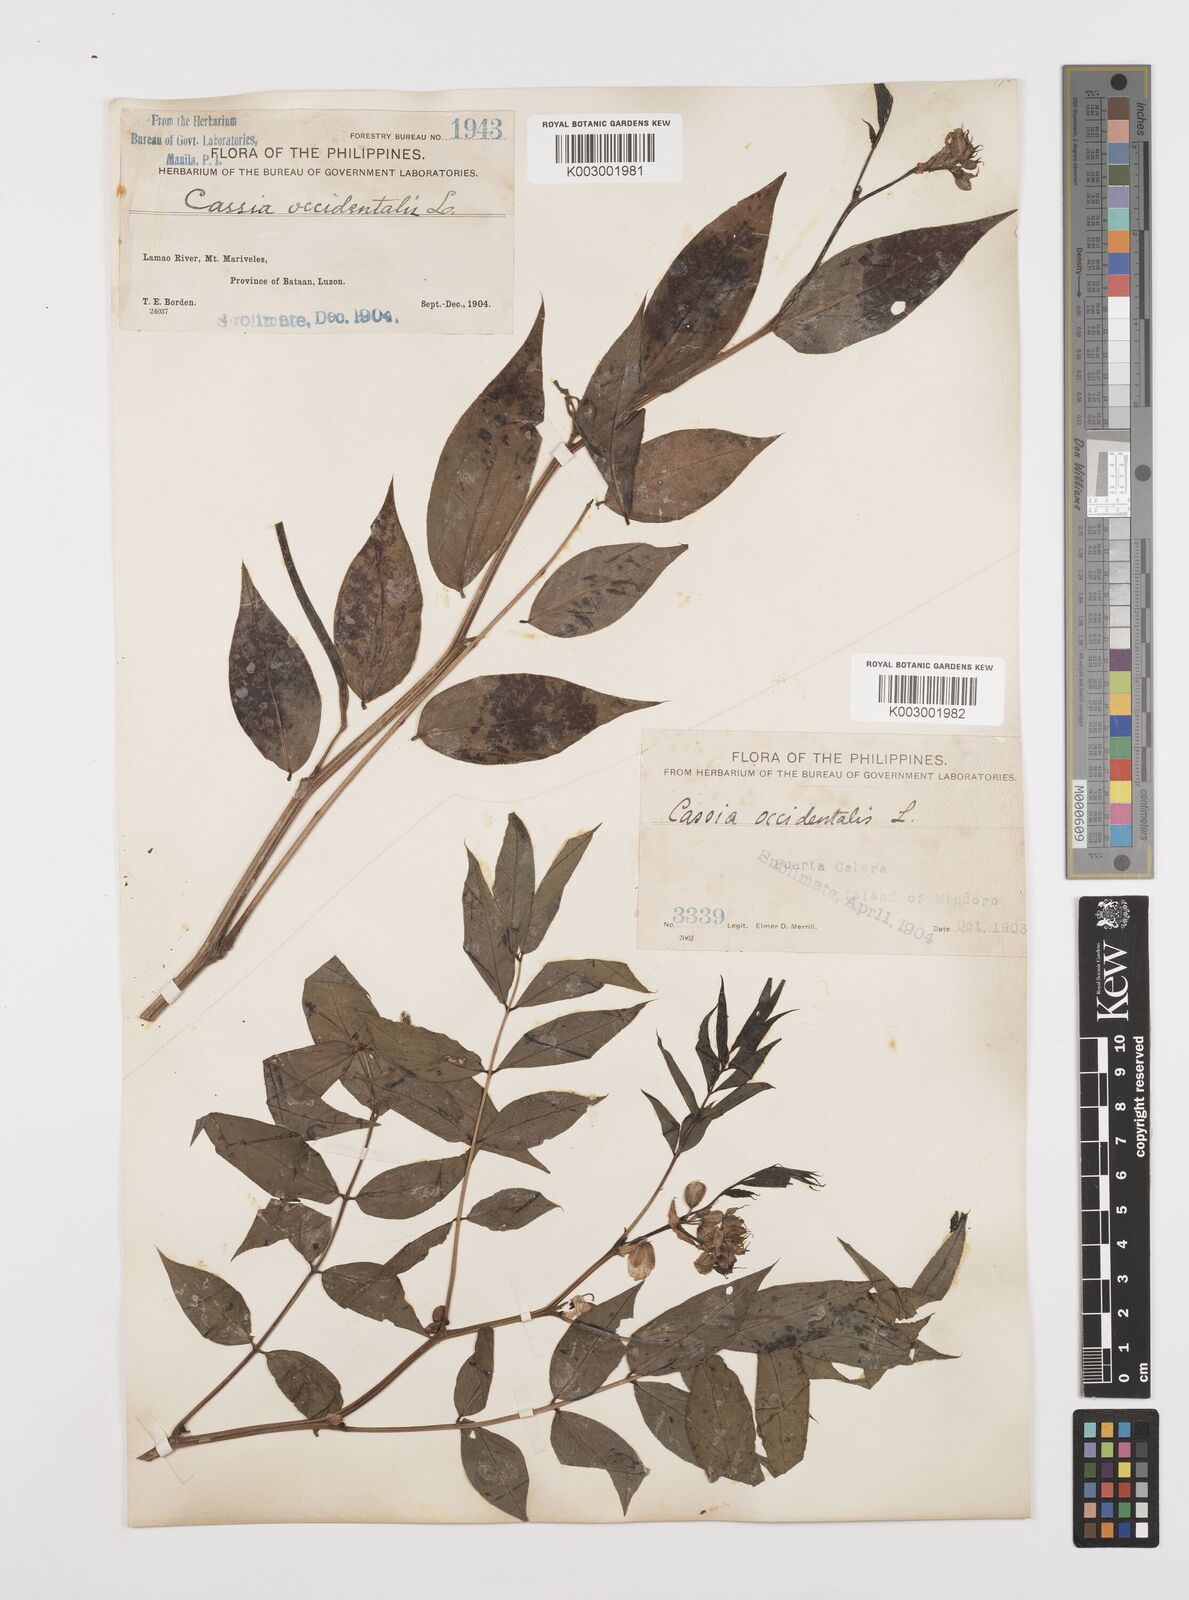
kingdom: Plantae
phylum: Tracheophyta
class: Magnoliopsida
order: Fabales
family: Fabaceae
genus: Senna
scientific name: Senna occidentalis
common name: Septicweed
